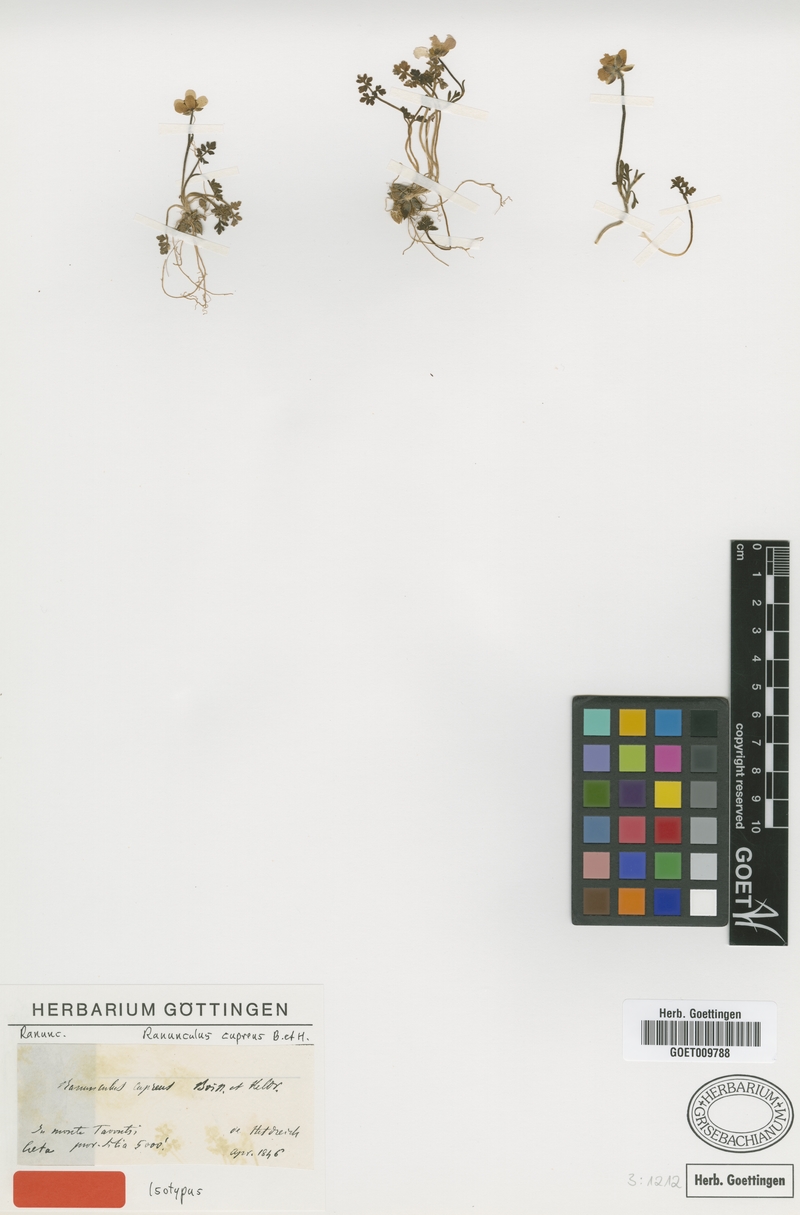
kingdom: Plantae
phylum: Tracheophyta
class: Magnoliopsida
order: Ranunculales
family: Ranunculaceae
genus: Ranunculus
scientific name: Ranunculus cupreus
